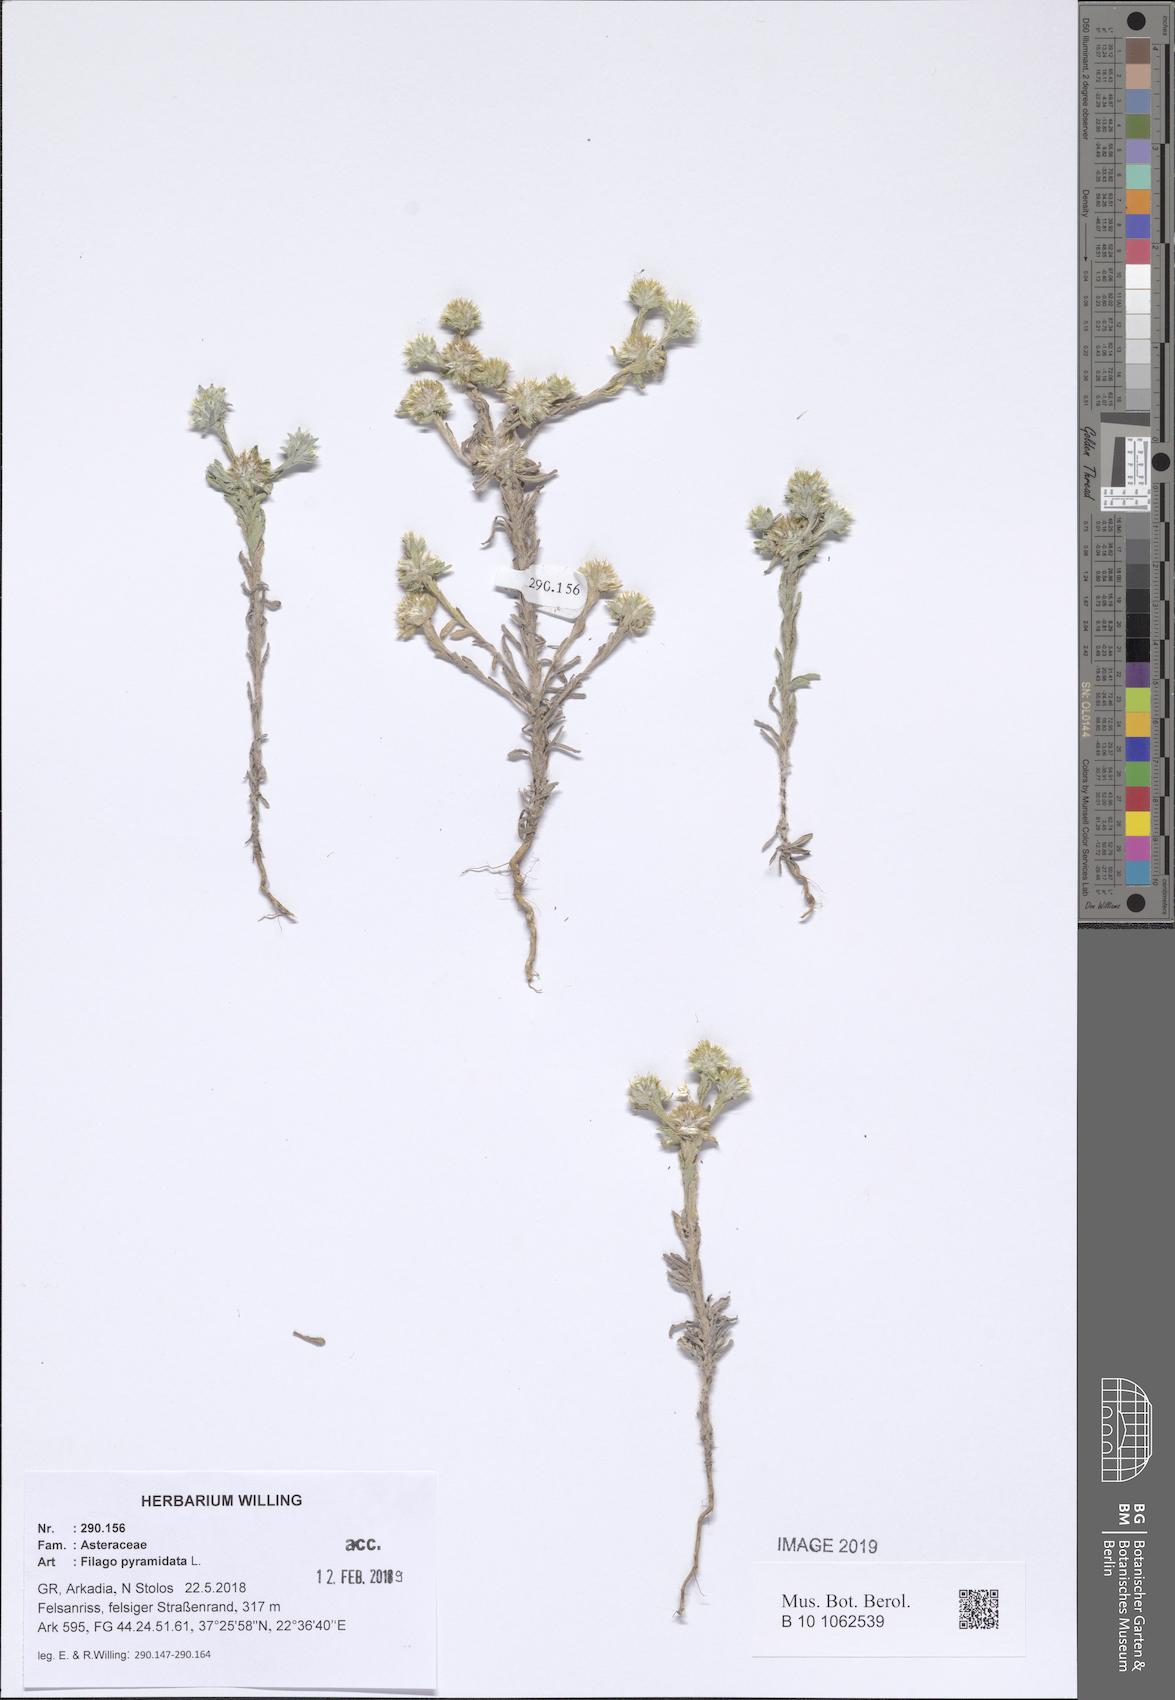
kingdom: Plantae
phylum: Tracheophyta
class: Magnoliopsida
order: Asterales
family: Asteraceae
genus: Filago
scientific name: Filago pyramidata
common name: Broad-leaved cudweed
